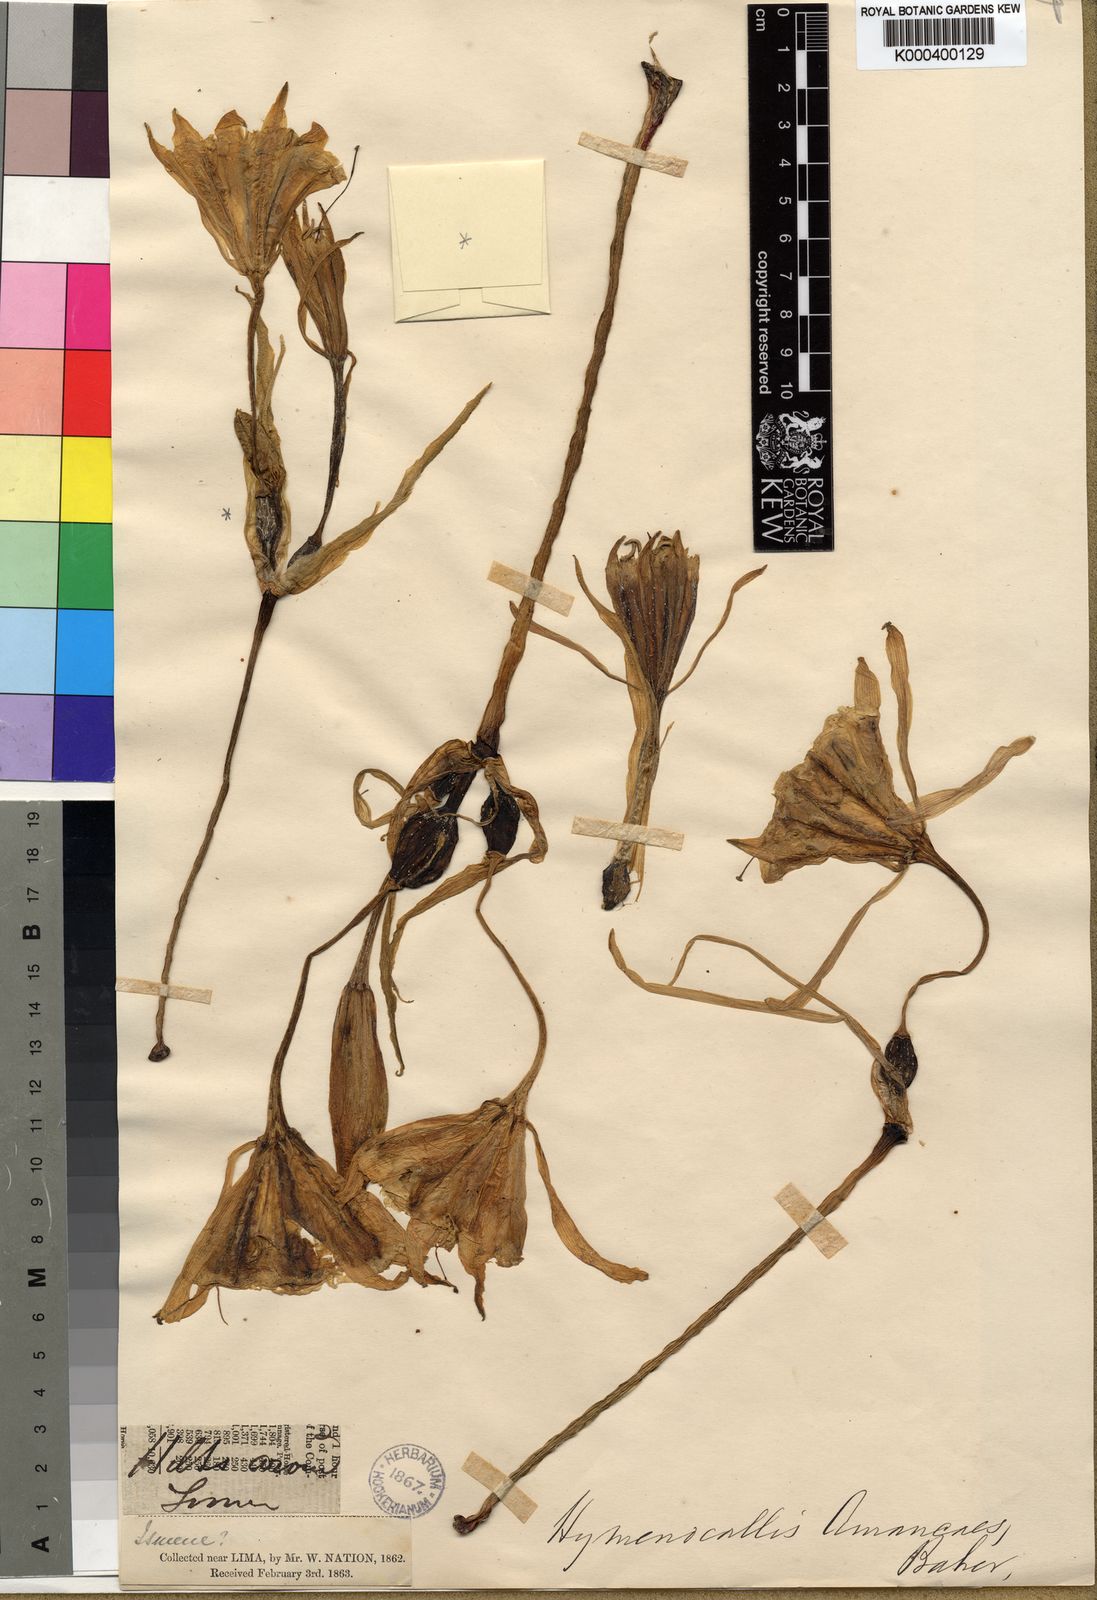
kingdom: Plantae
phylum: Tracheophyta
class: Liliopsida
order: Asparagales
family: Amaryllidaceae
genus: Ismene
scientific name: Ismene amancaes
